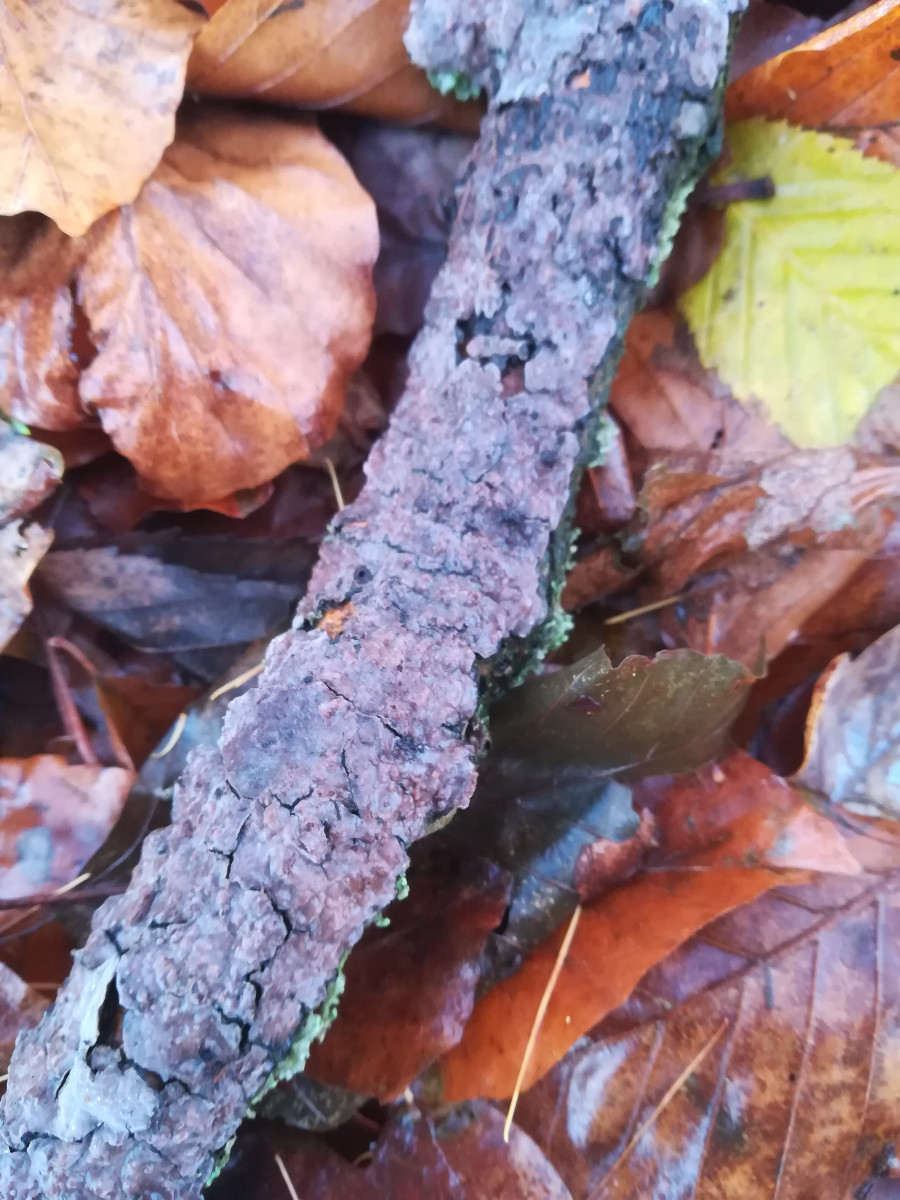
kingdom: Fungi
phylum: Basidiomycota
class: Agaricomycetes
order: Russulales
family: Peniophoraceae
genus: Peniophora
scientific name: Peniophora quercina
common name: ege-voksskind
